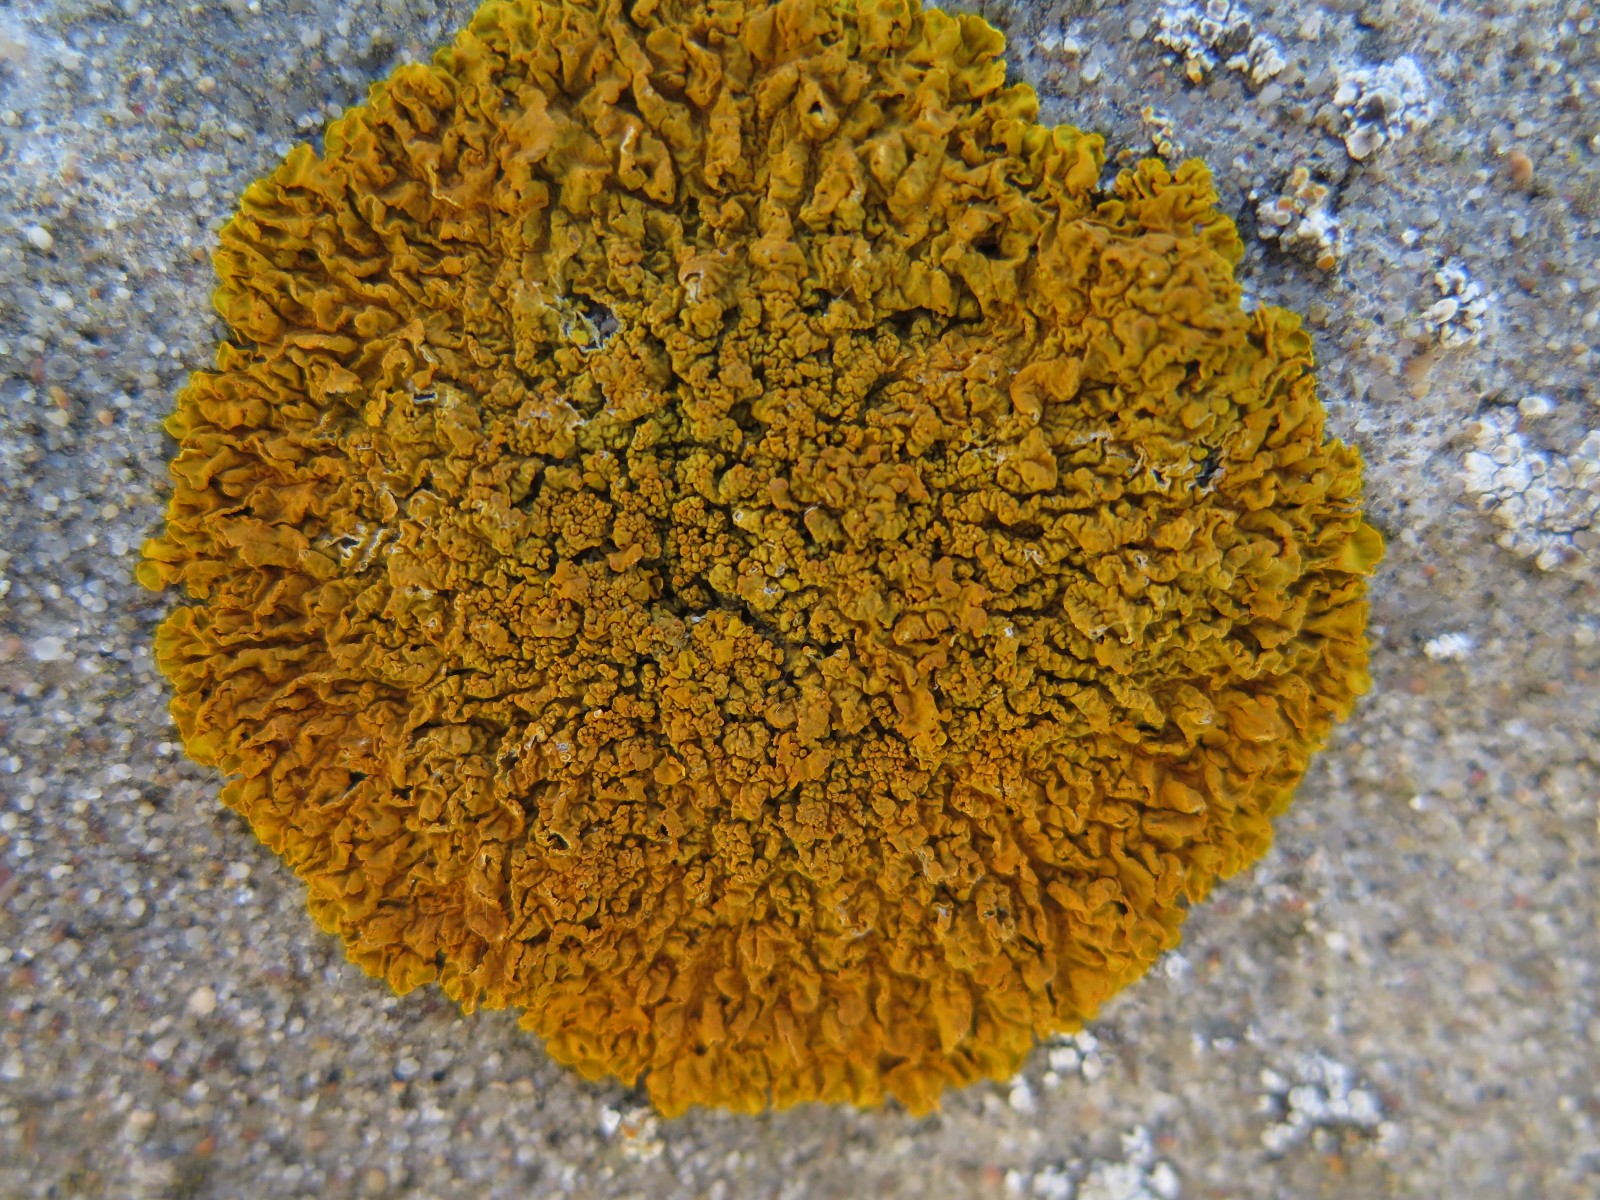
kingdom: Fungi
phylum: Ascomycota
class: Lecanoromycetes
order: Teloschistales
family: Teloschistaceae
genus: Xanthoria
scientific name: Xanthoria calcicola
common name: vortet væggelav
